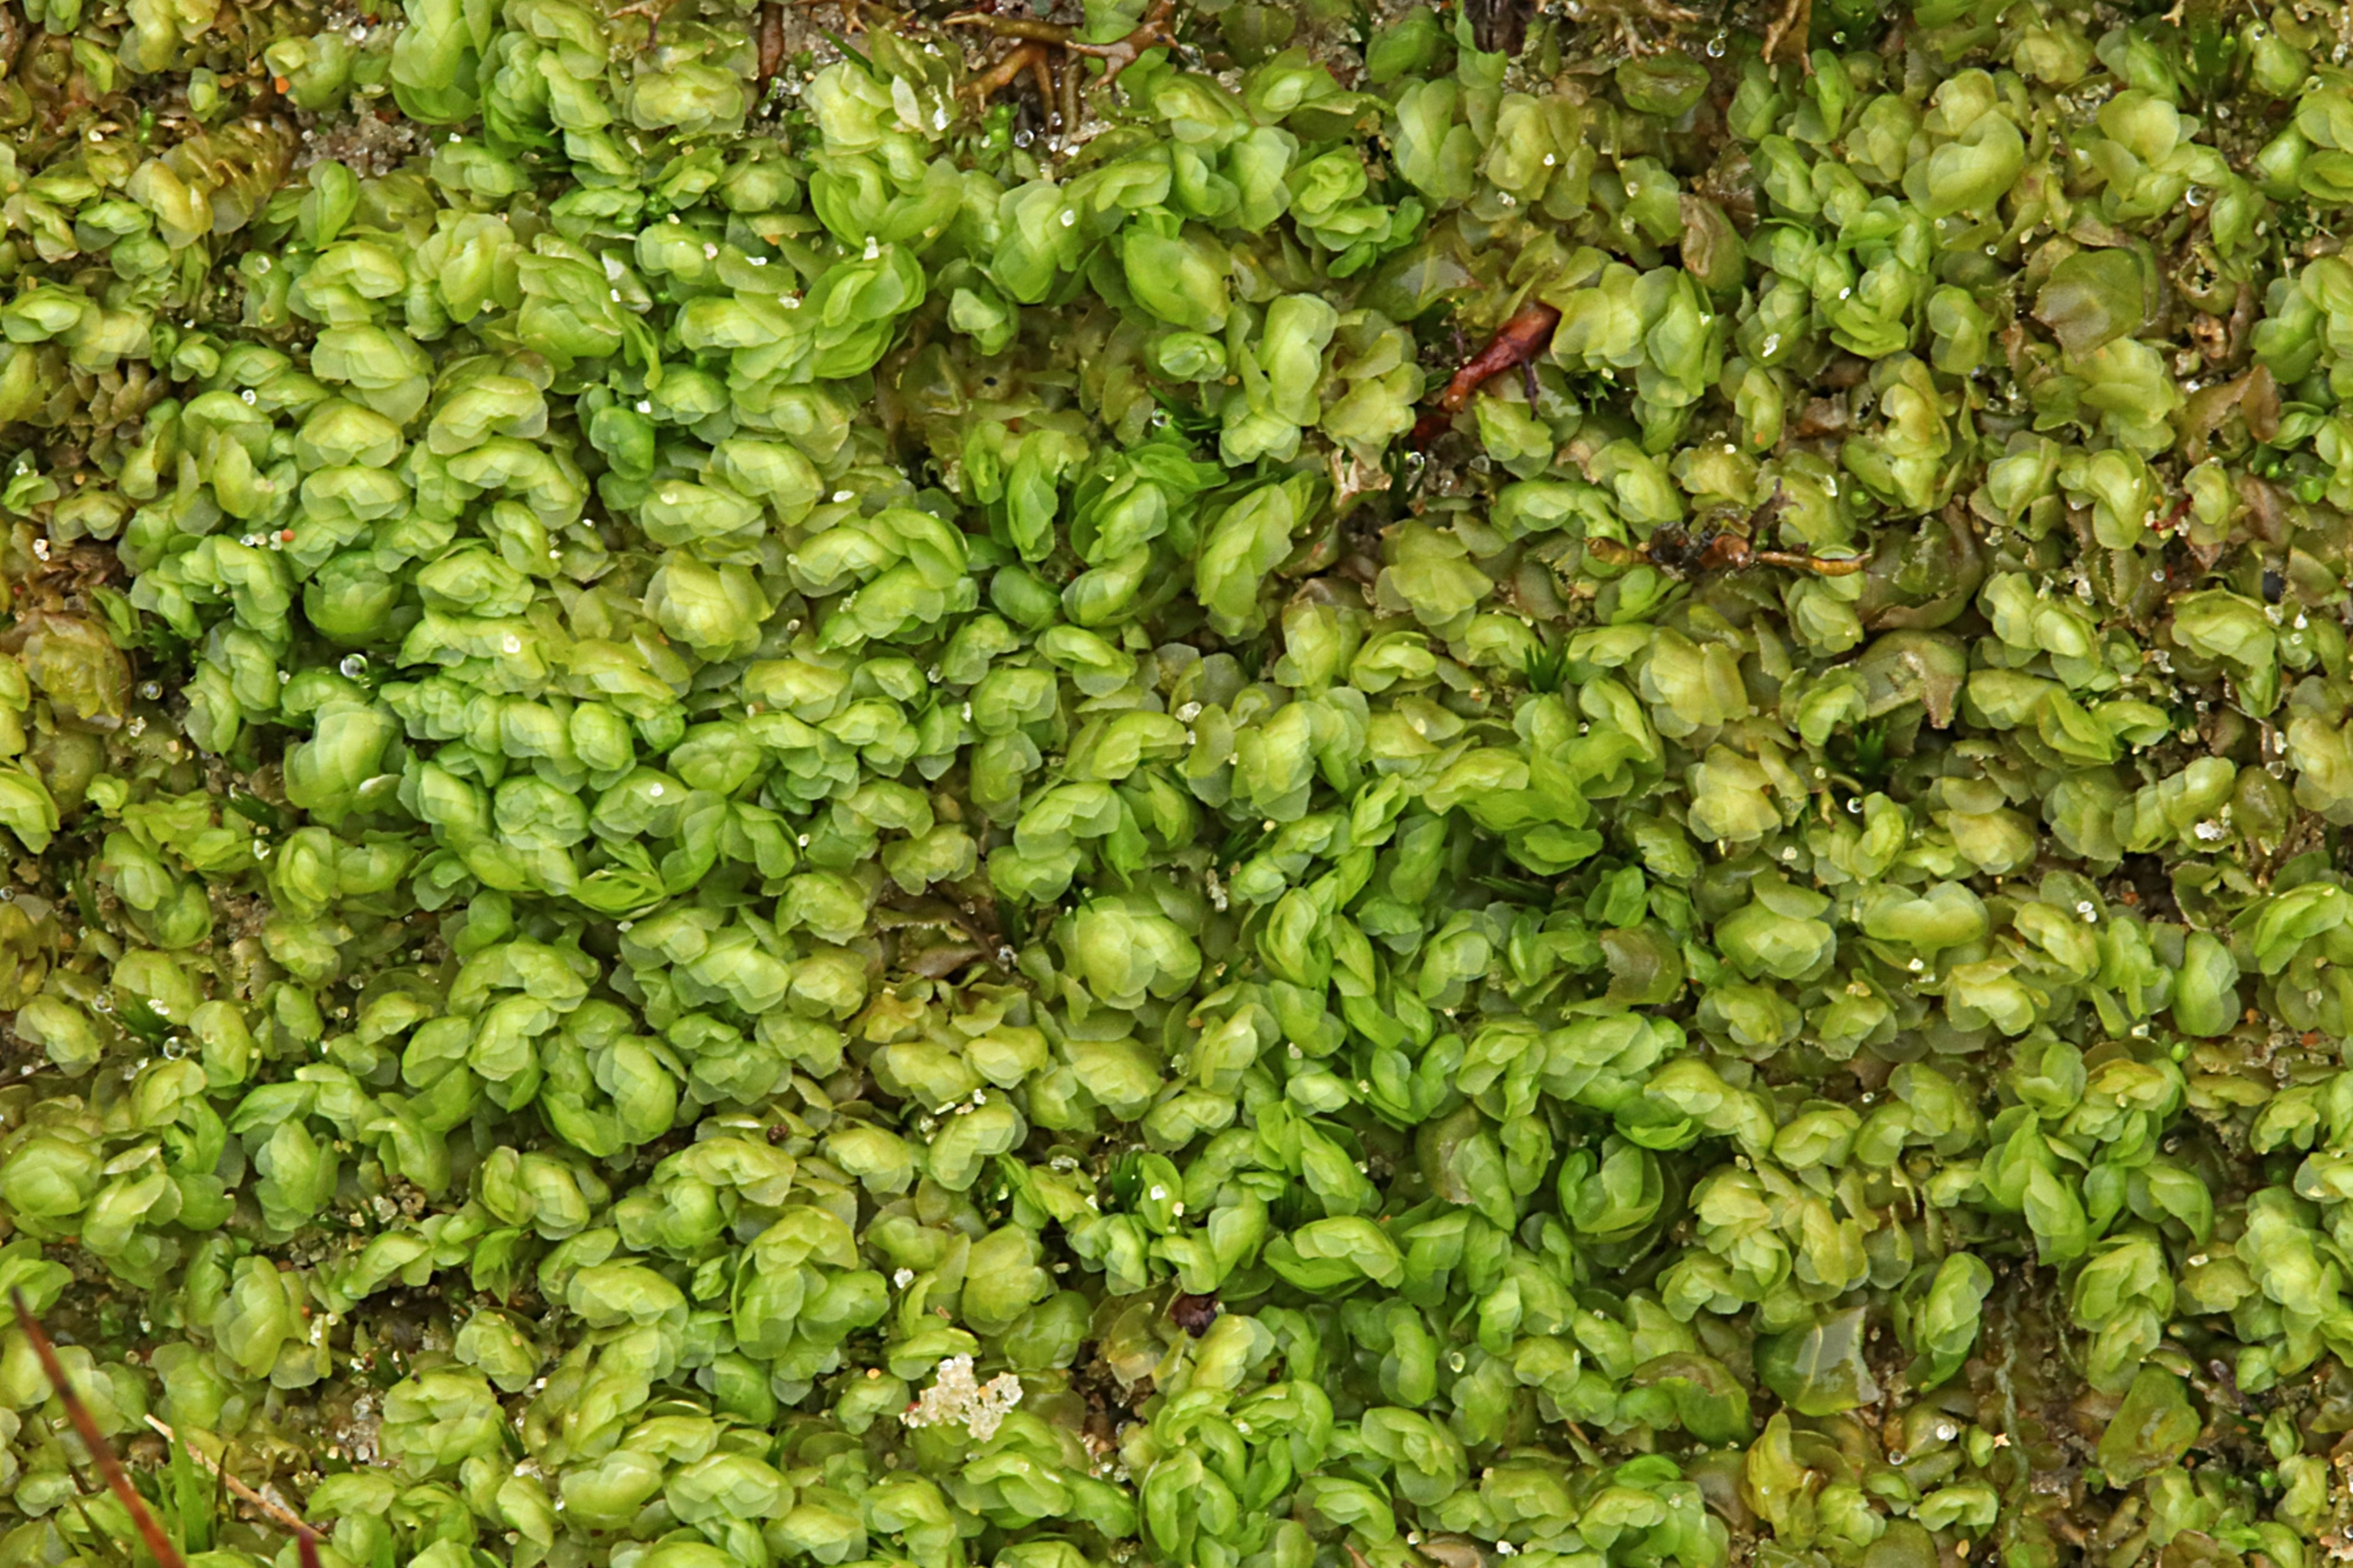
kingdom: Plantae
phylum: Marchantiophyta
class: Jungermanniopsida
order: Jungermanniales
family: Scapaniaceae
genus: Scapania
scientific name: Scapania compacta
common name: Tæt tveblad
